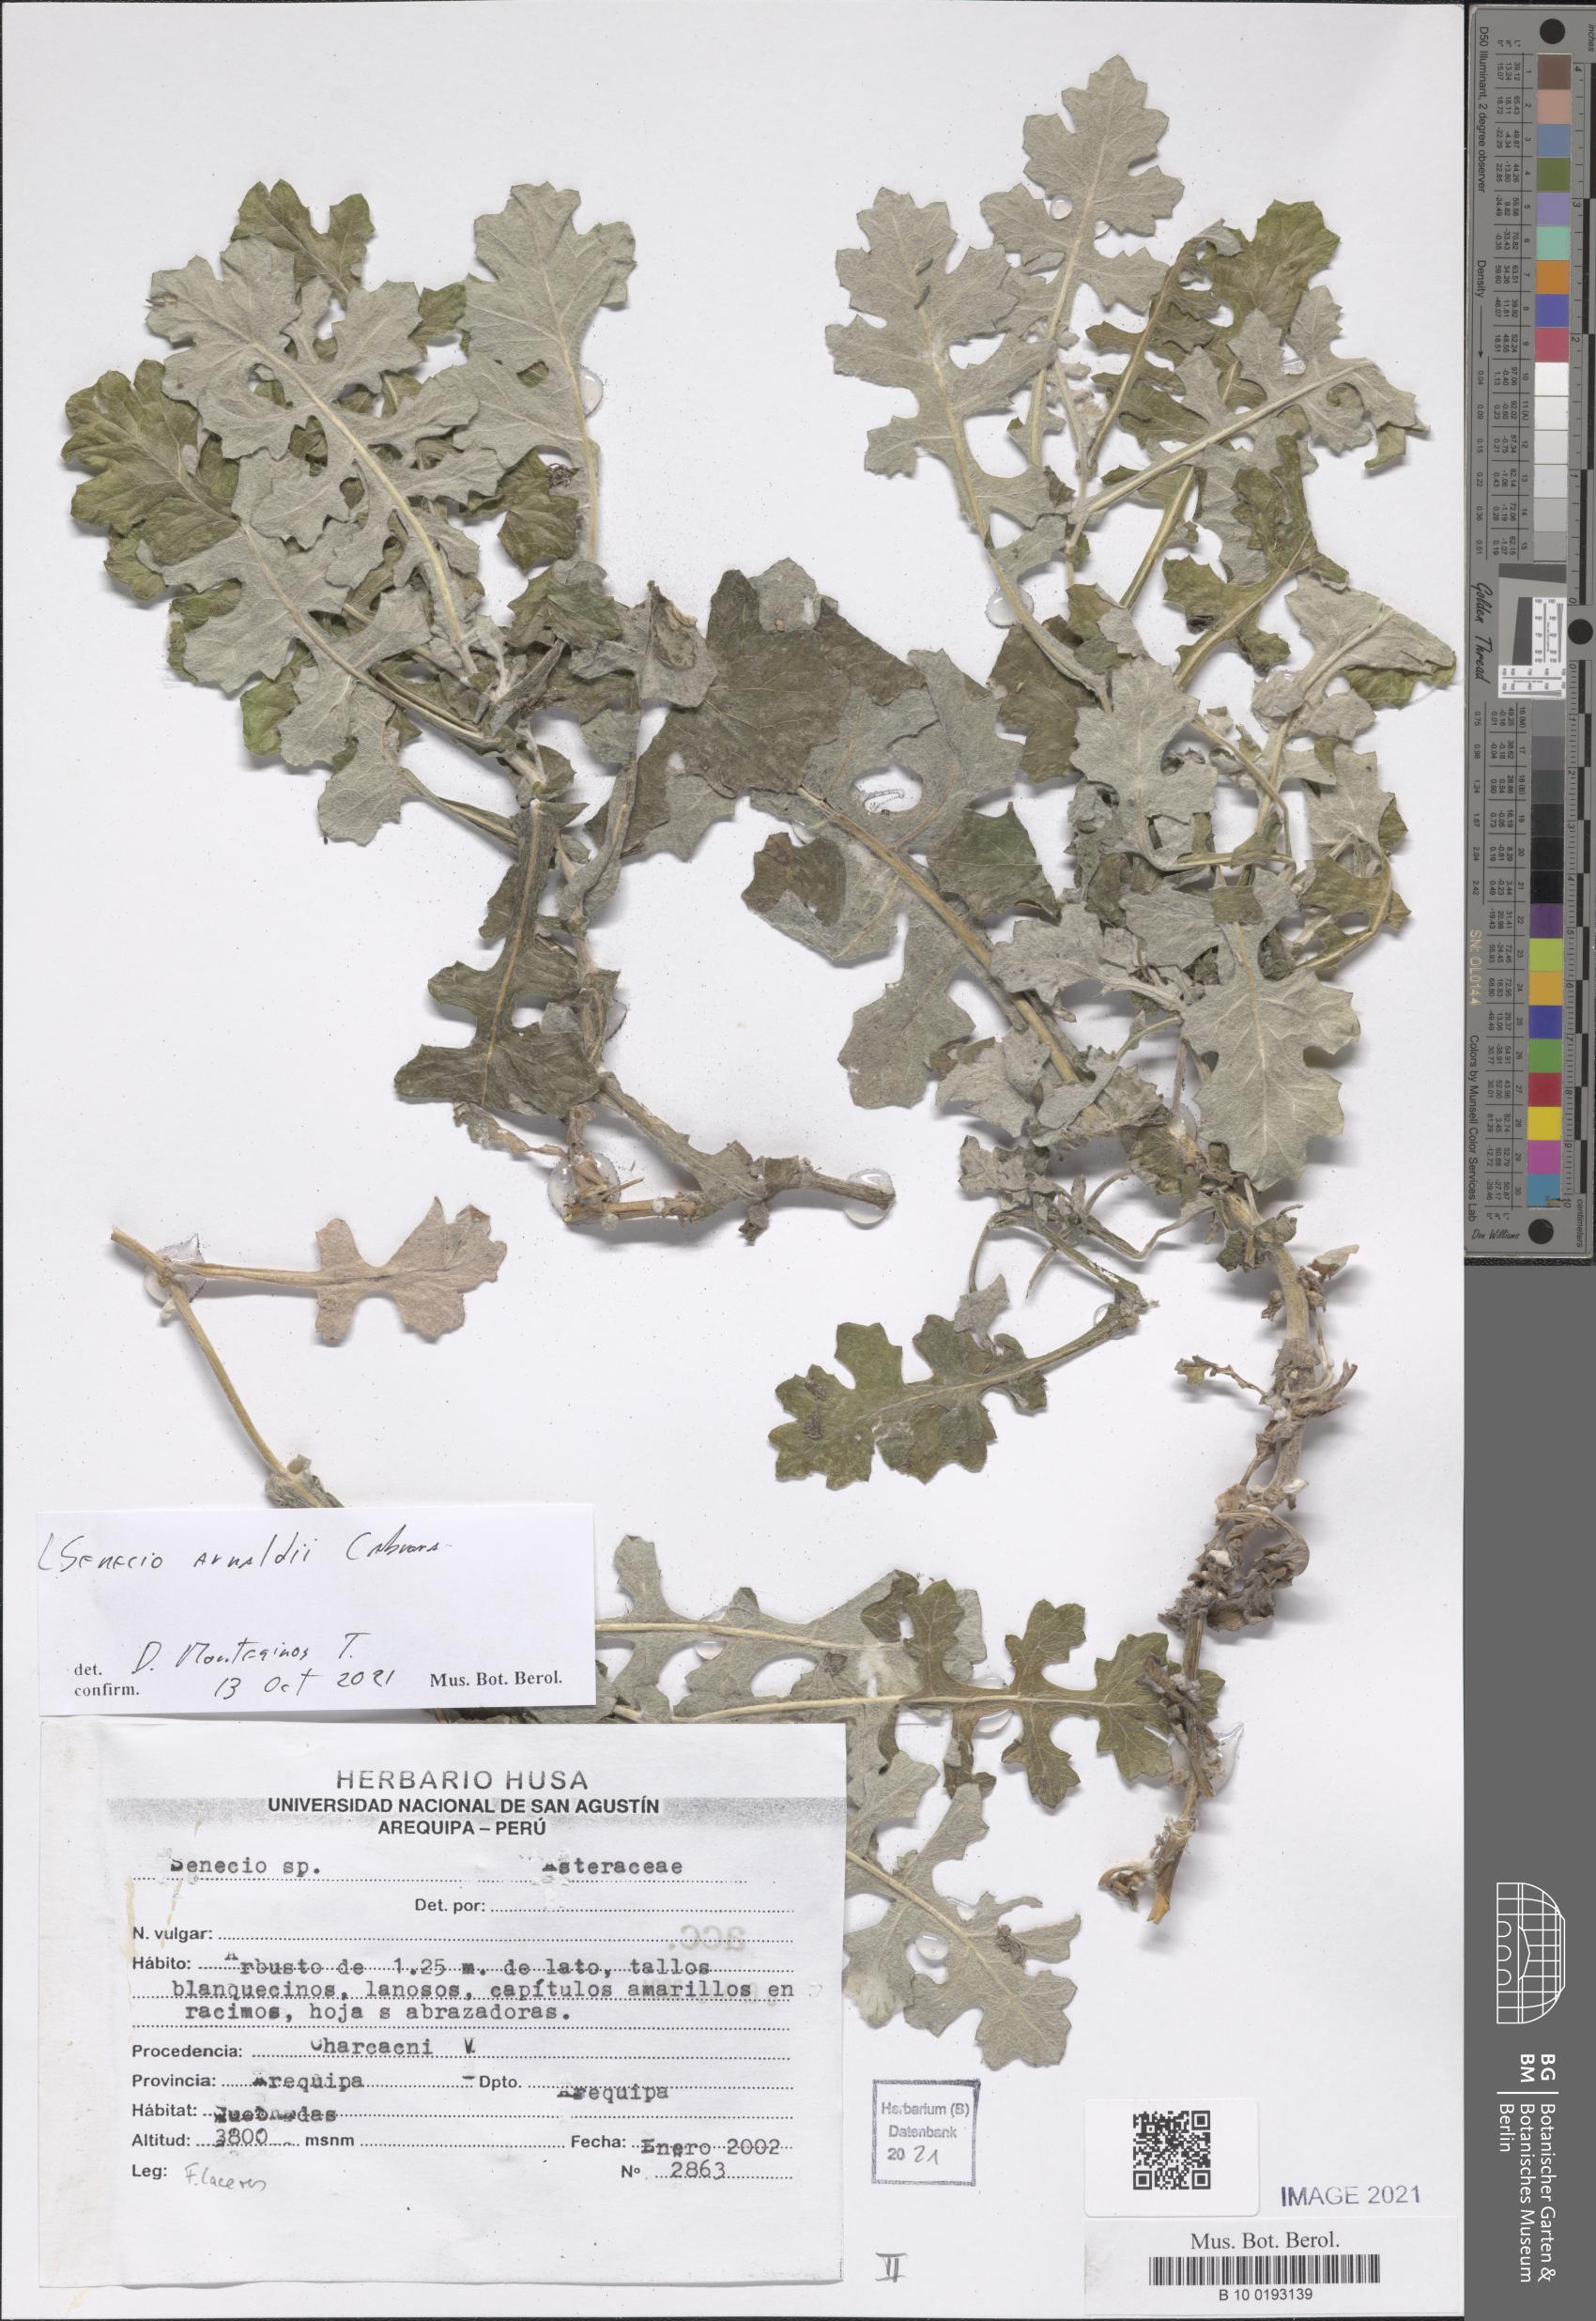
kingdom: Plantae
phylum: Tracheophyta
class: Magnoliopsida
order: Asterales
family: Asteraceae
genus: Lomanthus
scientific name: Lomanthus arnaldii
